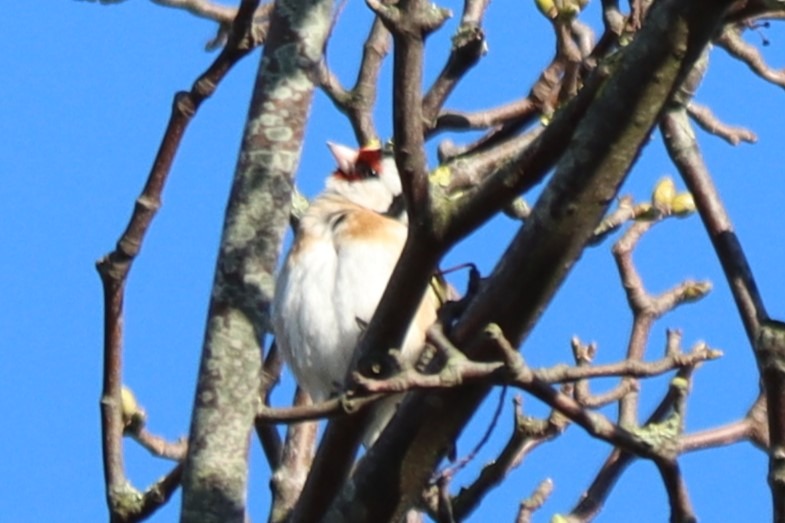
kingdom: Animalia
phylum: Chordata
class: Aves
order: Passeriformes
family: Fringillidae
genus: Carduelis
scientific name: Carduelis carduelis
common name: Stillits
